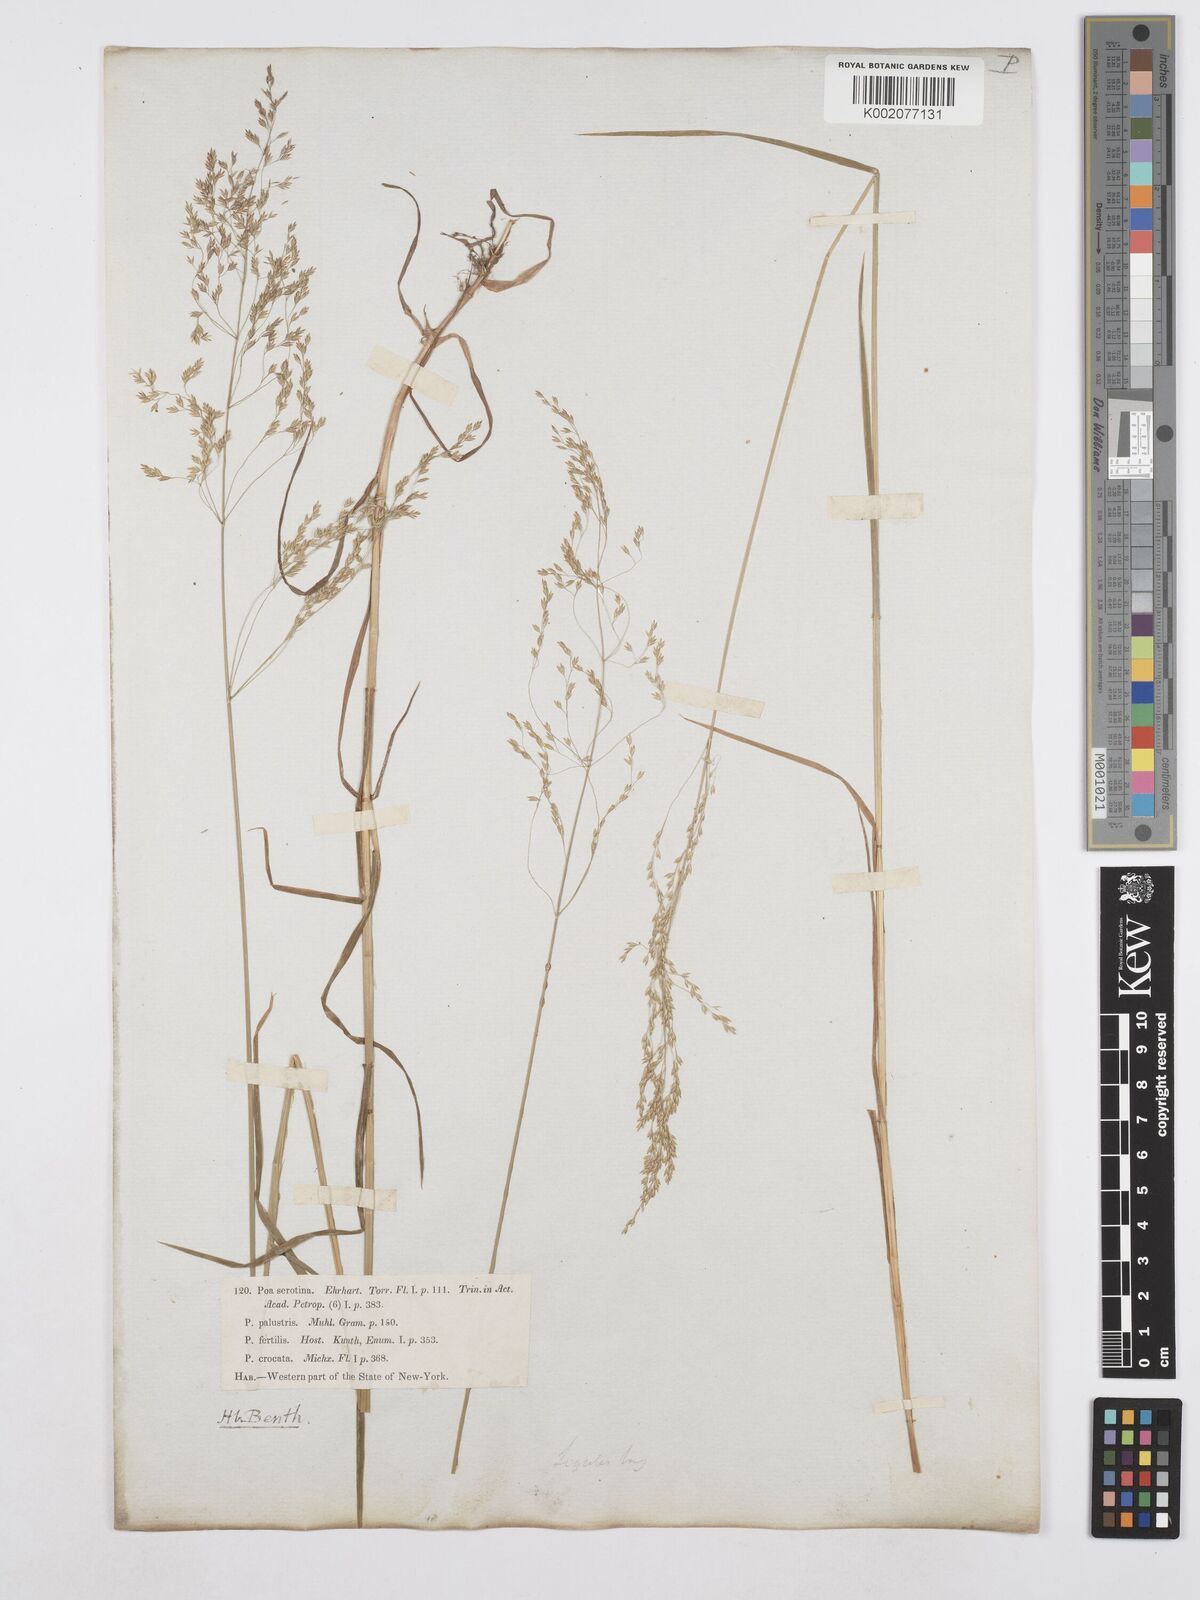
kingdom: Plantae
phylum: Tracheophyta
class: Liliopsida
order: Poales
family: Poaceae
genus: Poa
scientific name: Poa palustris
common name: Swamp meadow-grass
